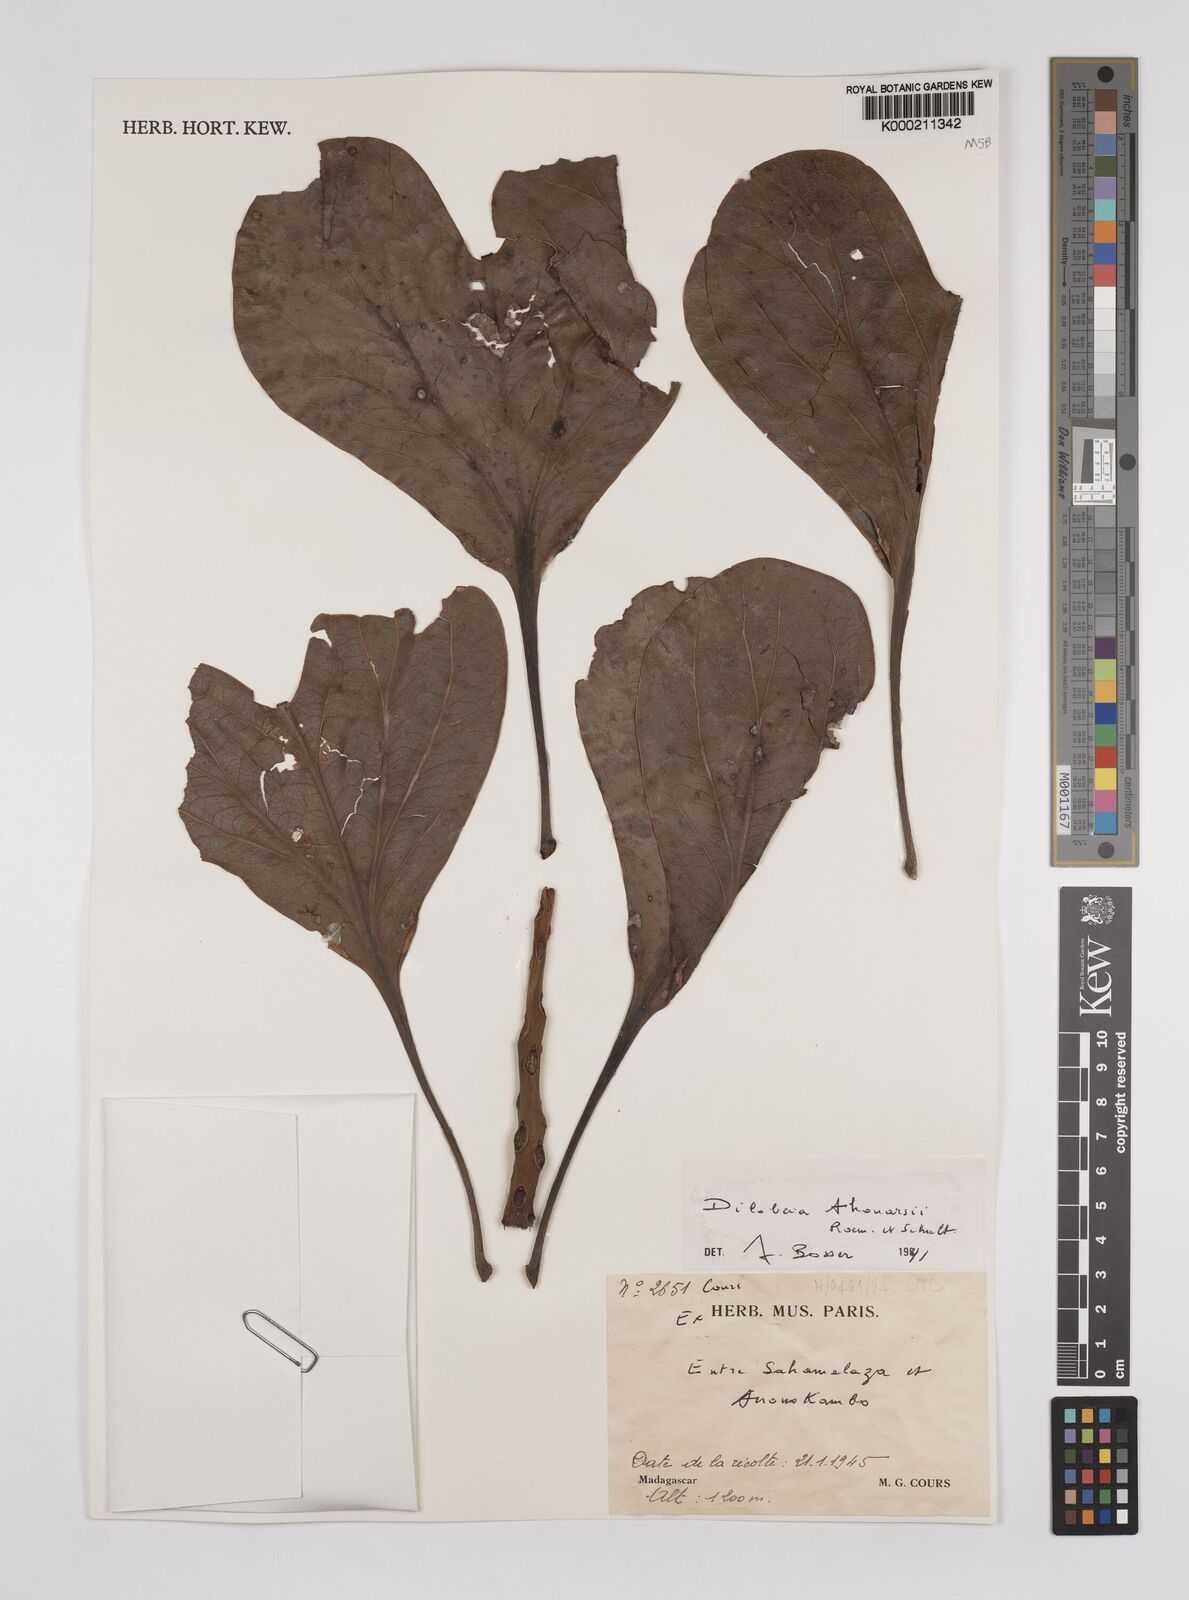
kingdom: Plantae
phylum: Tracheophyta
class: Magnoliopsida
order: Proteales
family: Proteaceae
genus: Dilobeia
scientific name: Dilobeia thouarsii
